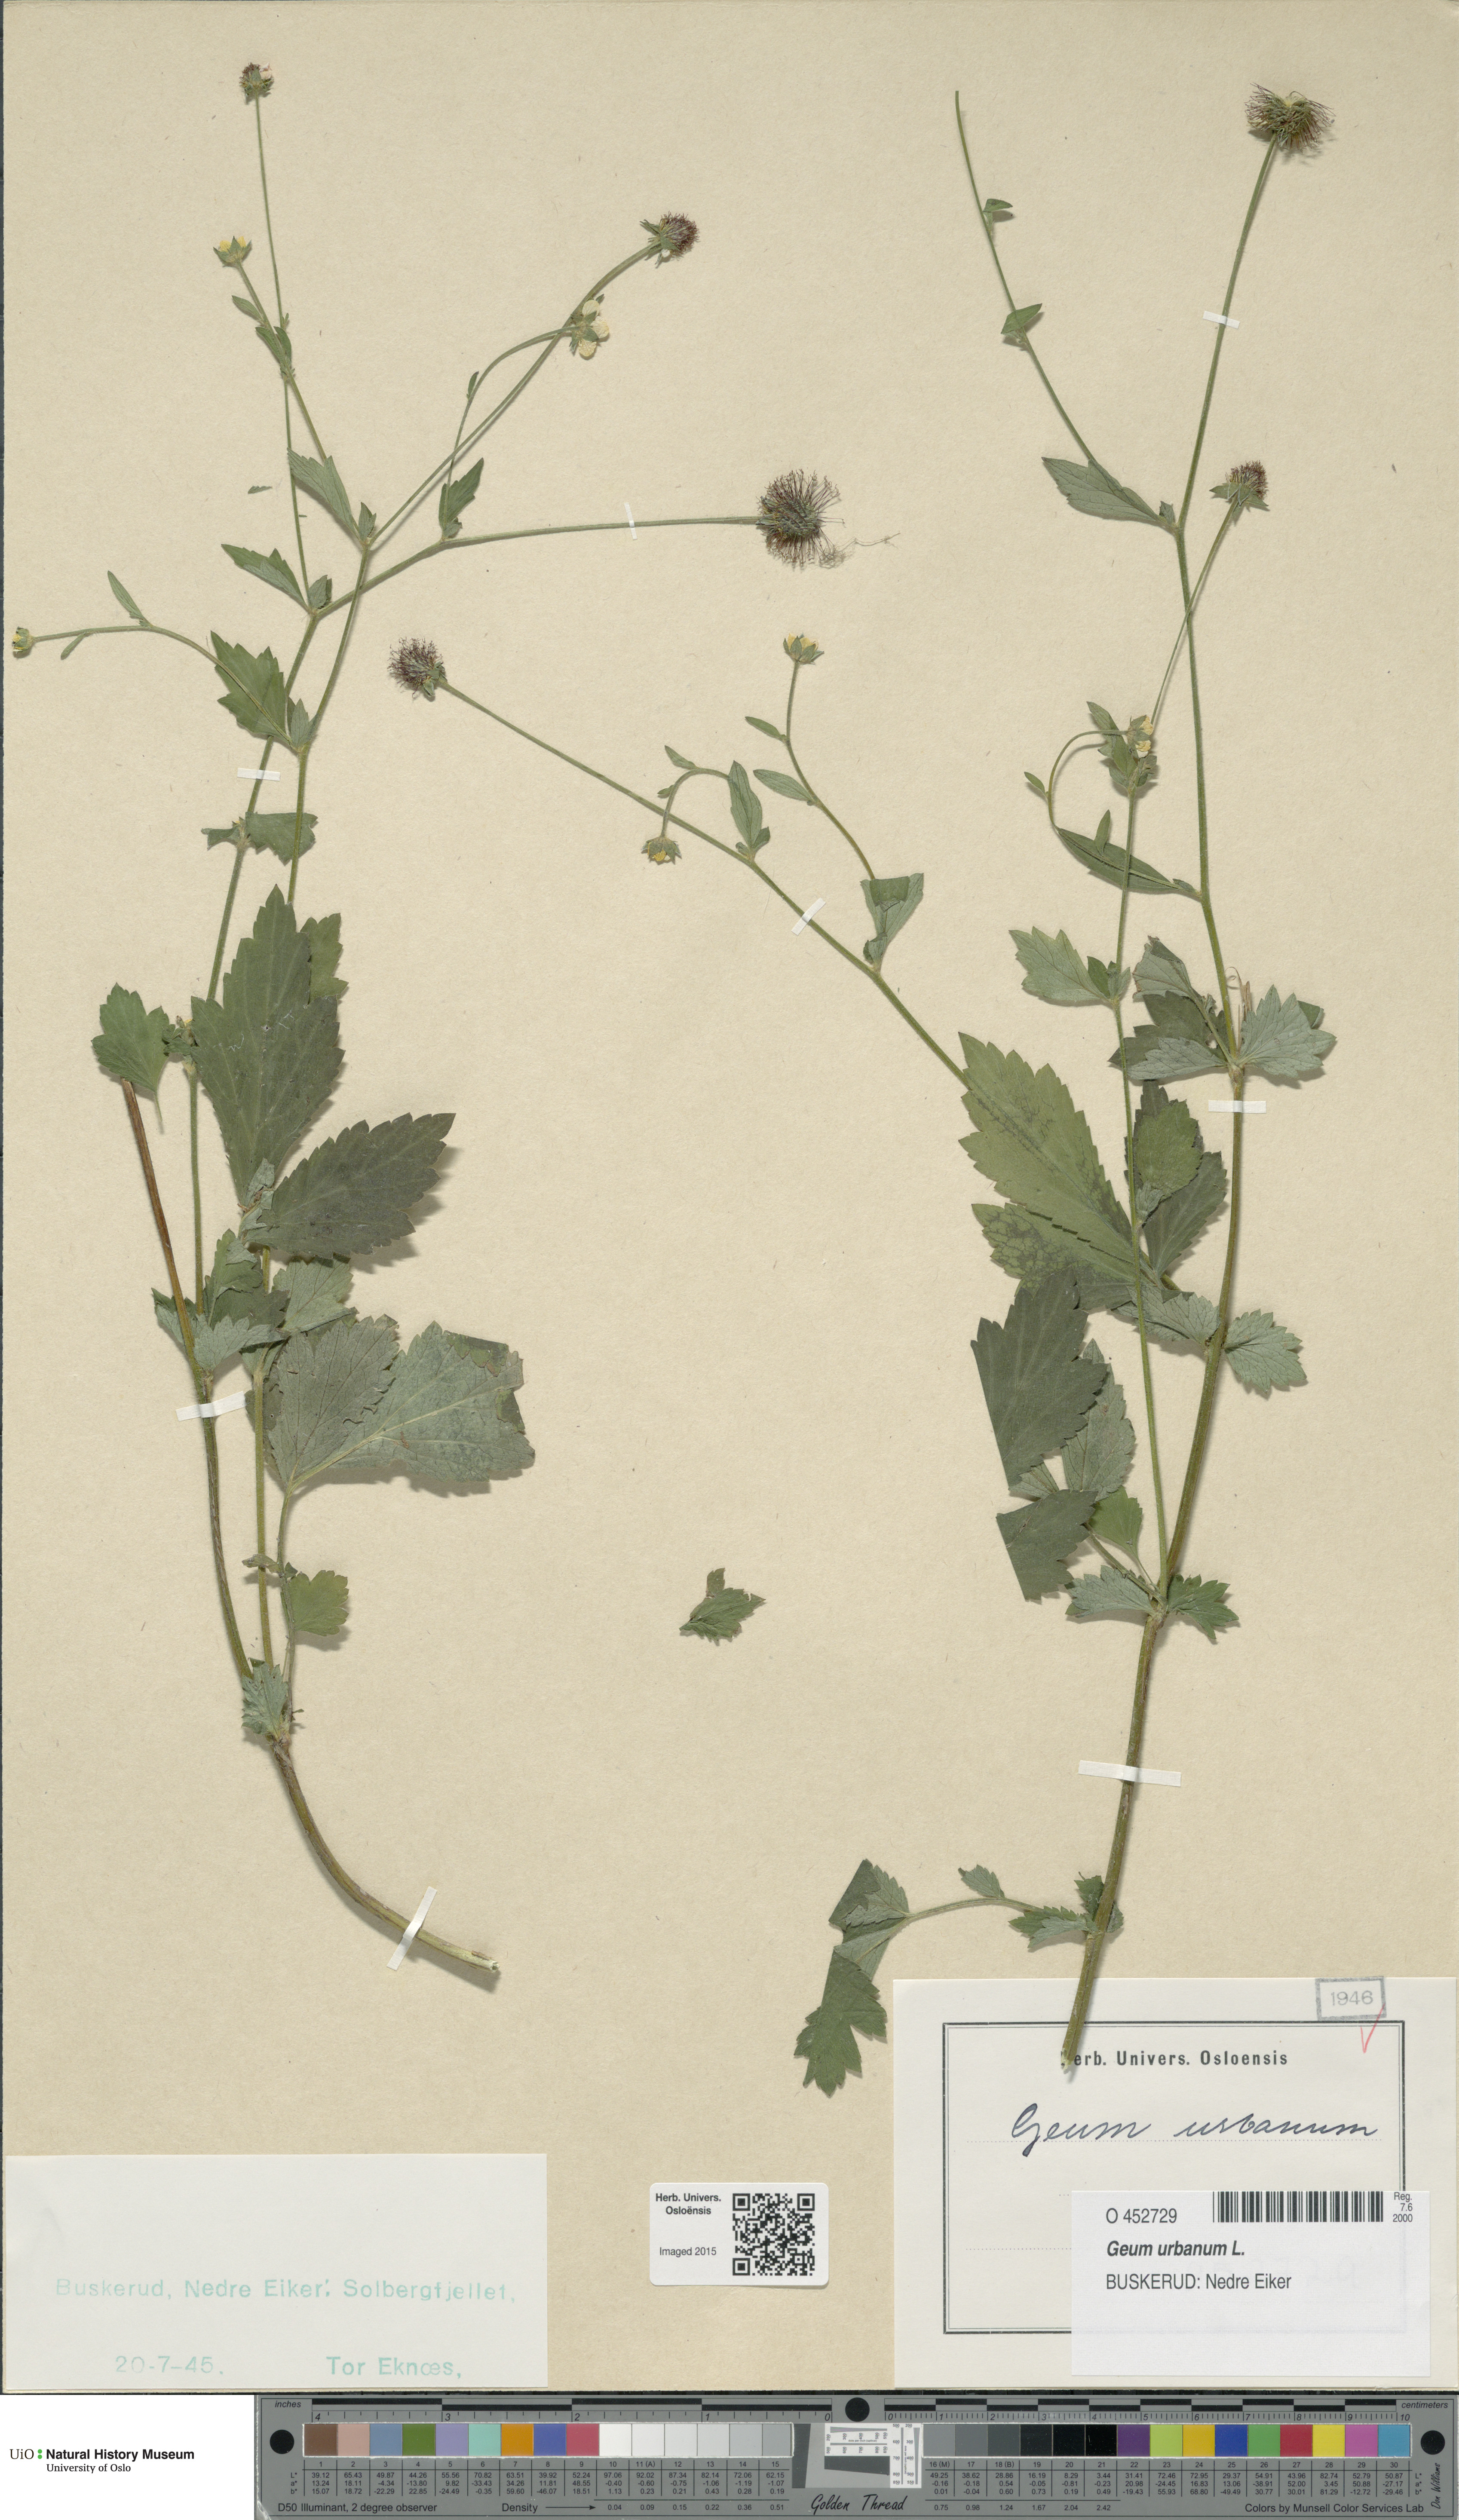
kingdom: Plantae
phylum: Tracheophyta
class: Magnoliopsida
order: Rosales
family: Rosaceae
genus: Geum
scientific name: Geum urbanum
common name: Wood avens
